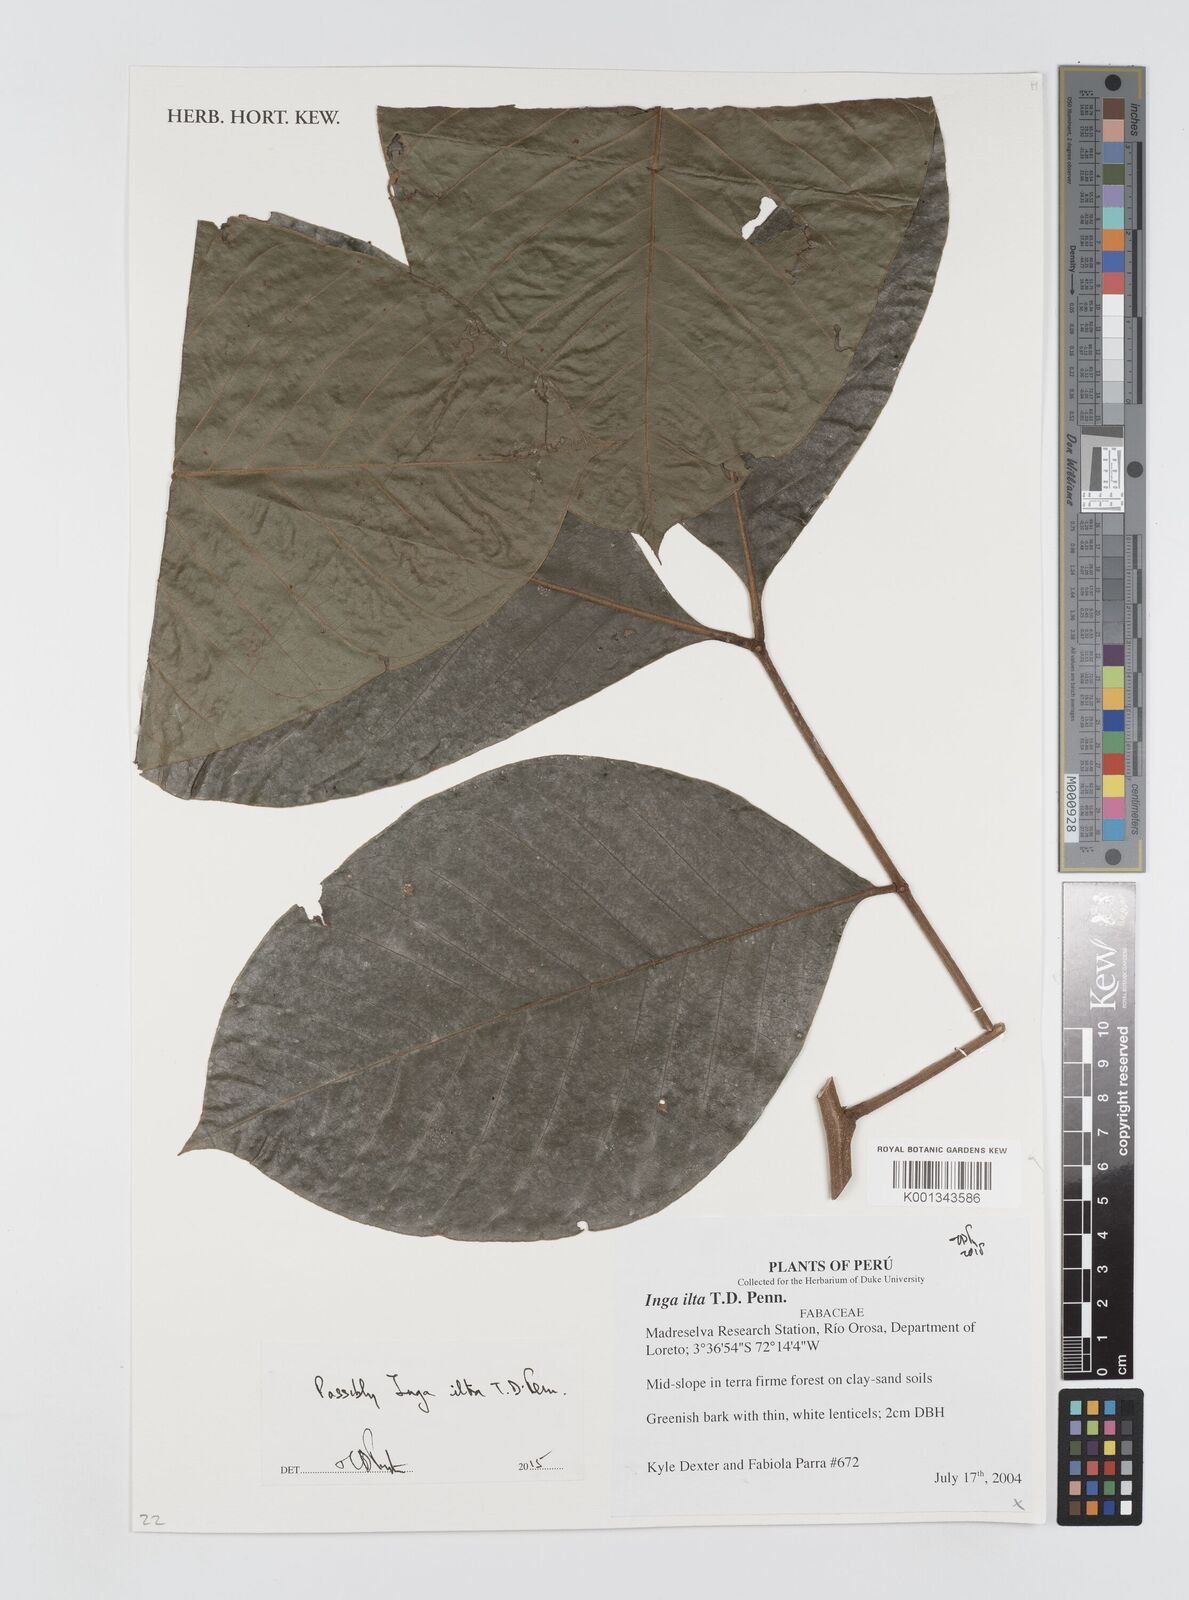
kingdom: Plantae
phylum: Tracheophyta
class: Magnoliopsida
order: Fabales
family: Fabaceae
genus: Inga
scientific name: Inga alba
